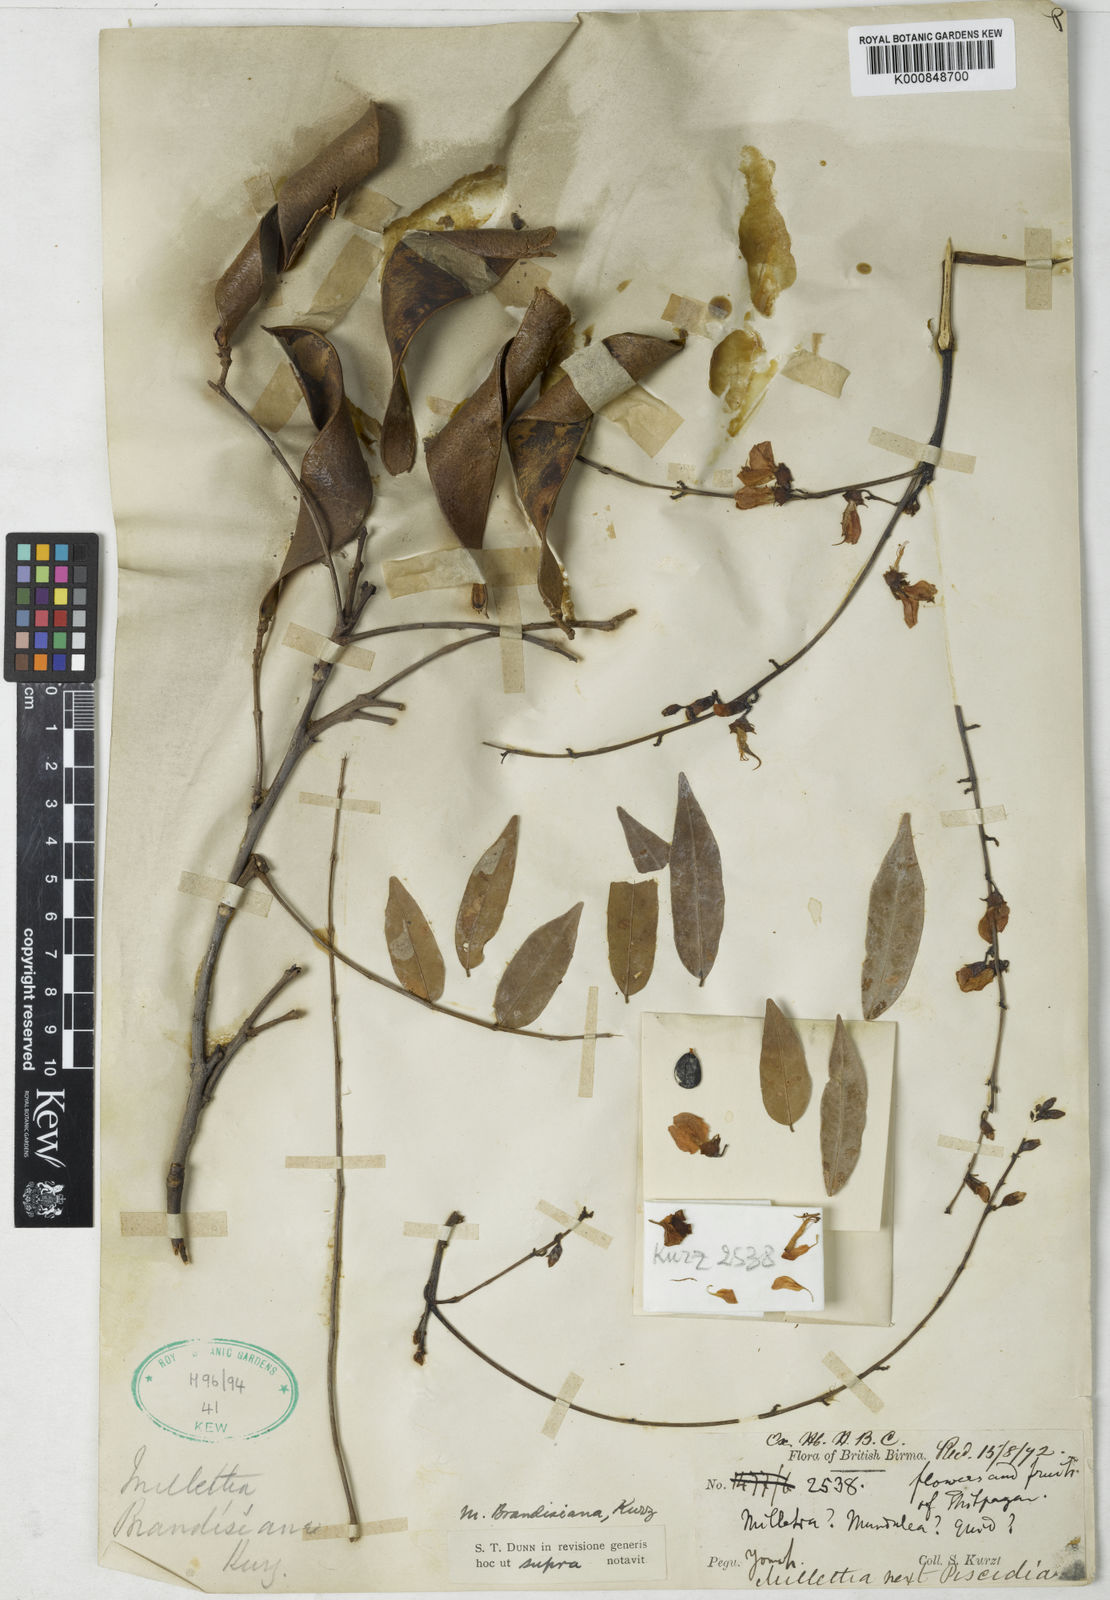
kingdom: Plantae
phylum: Tracheophyta
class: Magnoliopsida
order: Fabales
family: Fabaceae
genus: Millettia
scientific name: Millettia brandisiana
